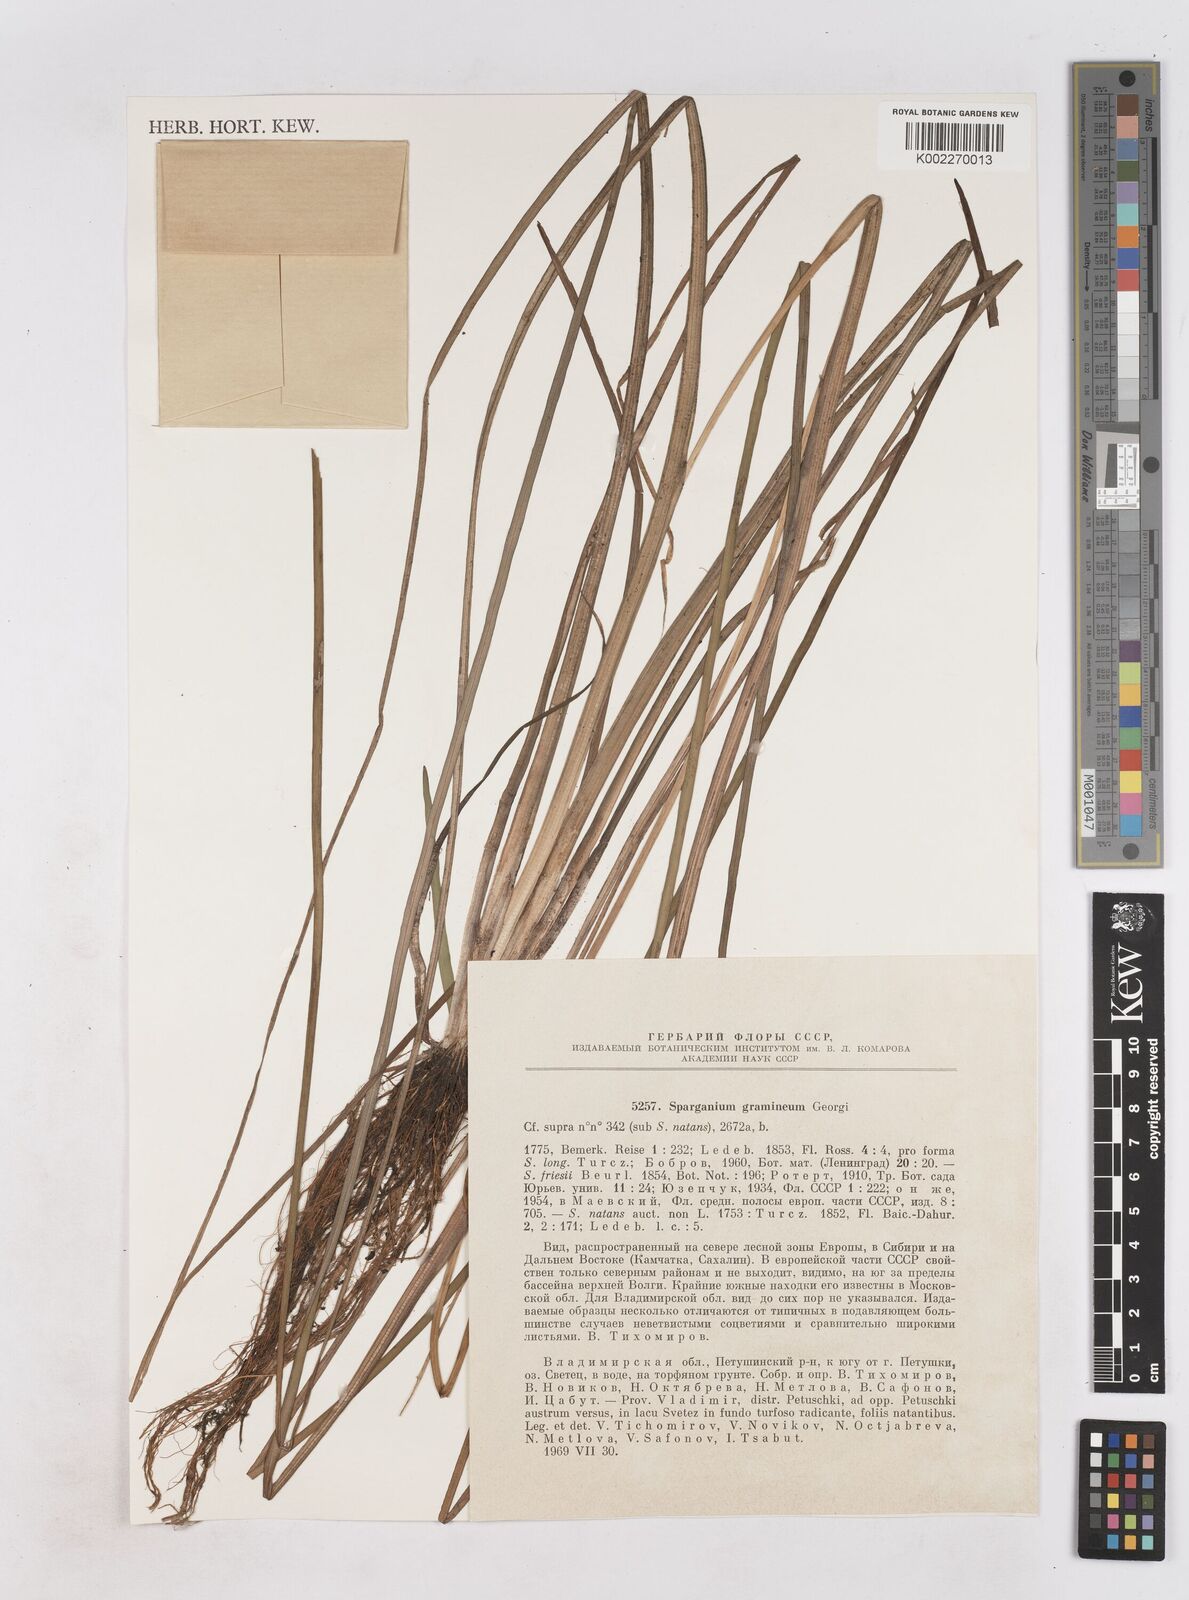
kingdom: Plantae
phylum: Tracheophyta
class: Liliopsida
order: Poales
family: Typhaceae
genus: Sparganium
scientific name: Sparganium gramineum
